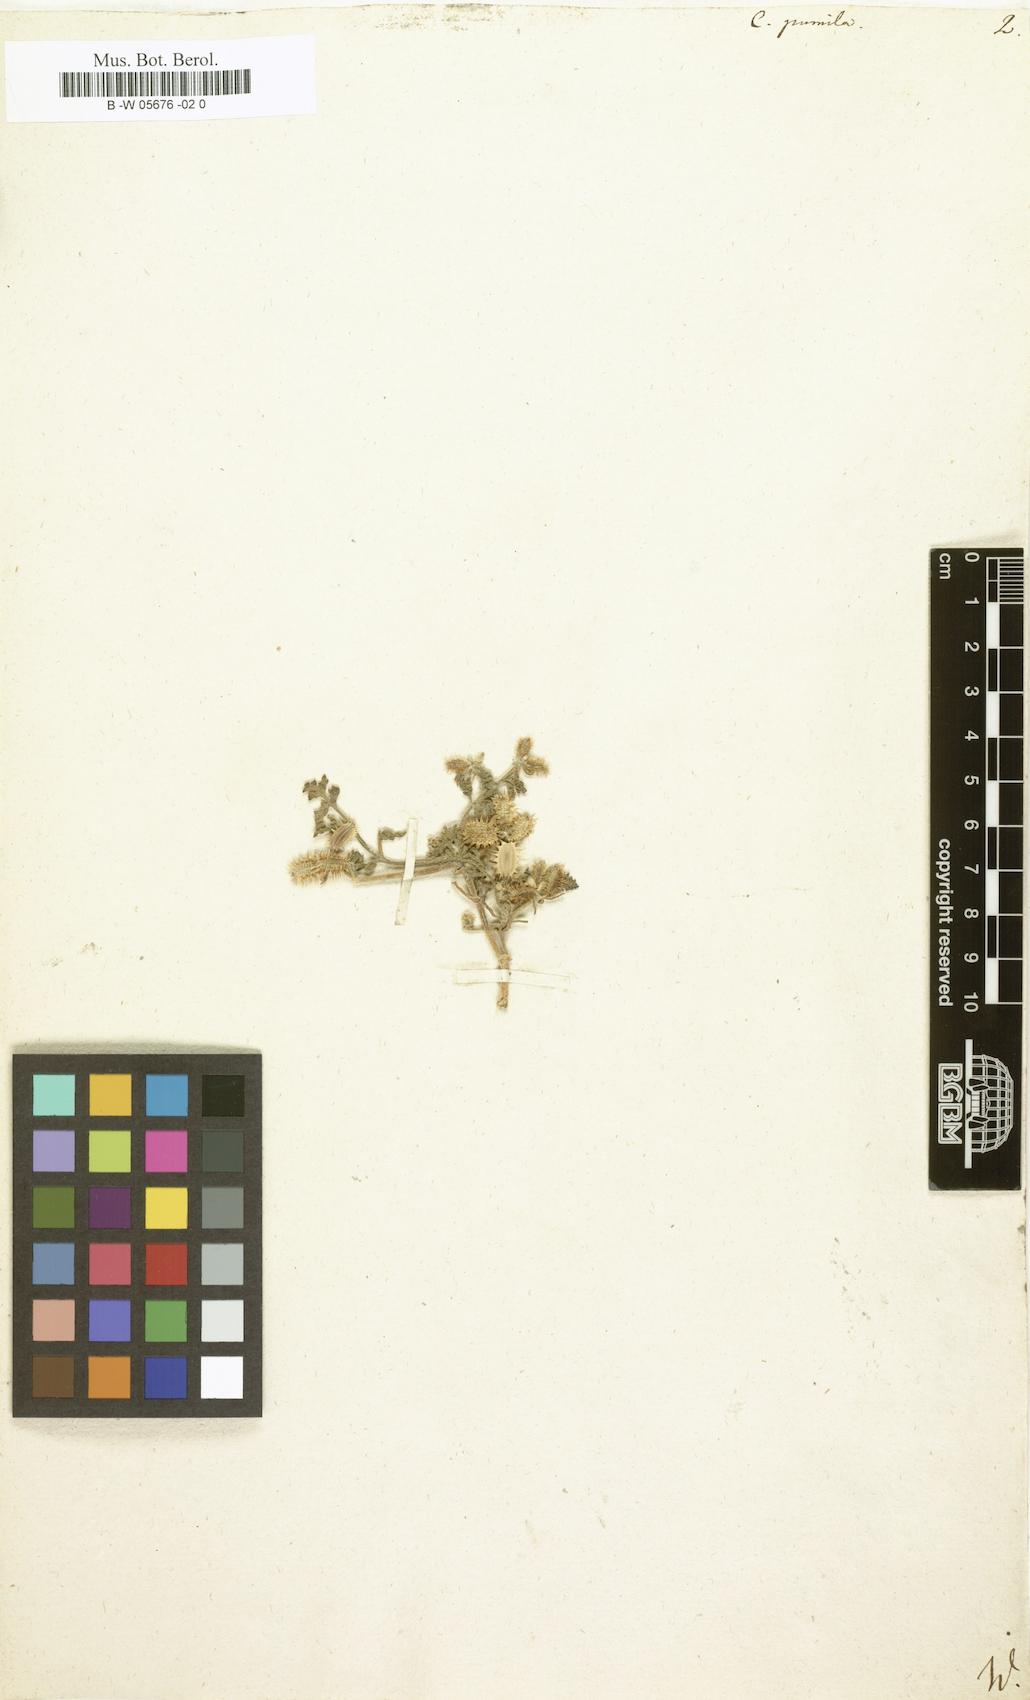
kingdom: Plantae
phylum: Tracheophyta
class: Magnoliopsida
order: Apiales
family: Apiaceae
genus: Caucalis
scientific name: Caucalis pumila
